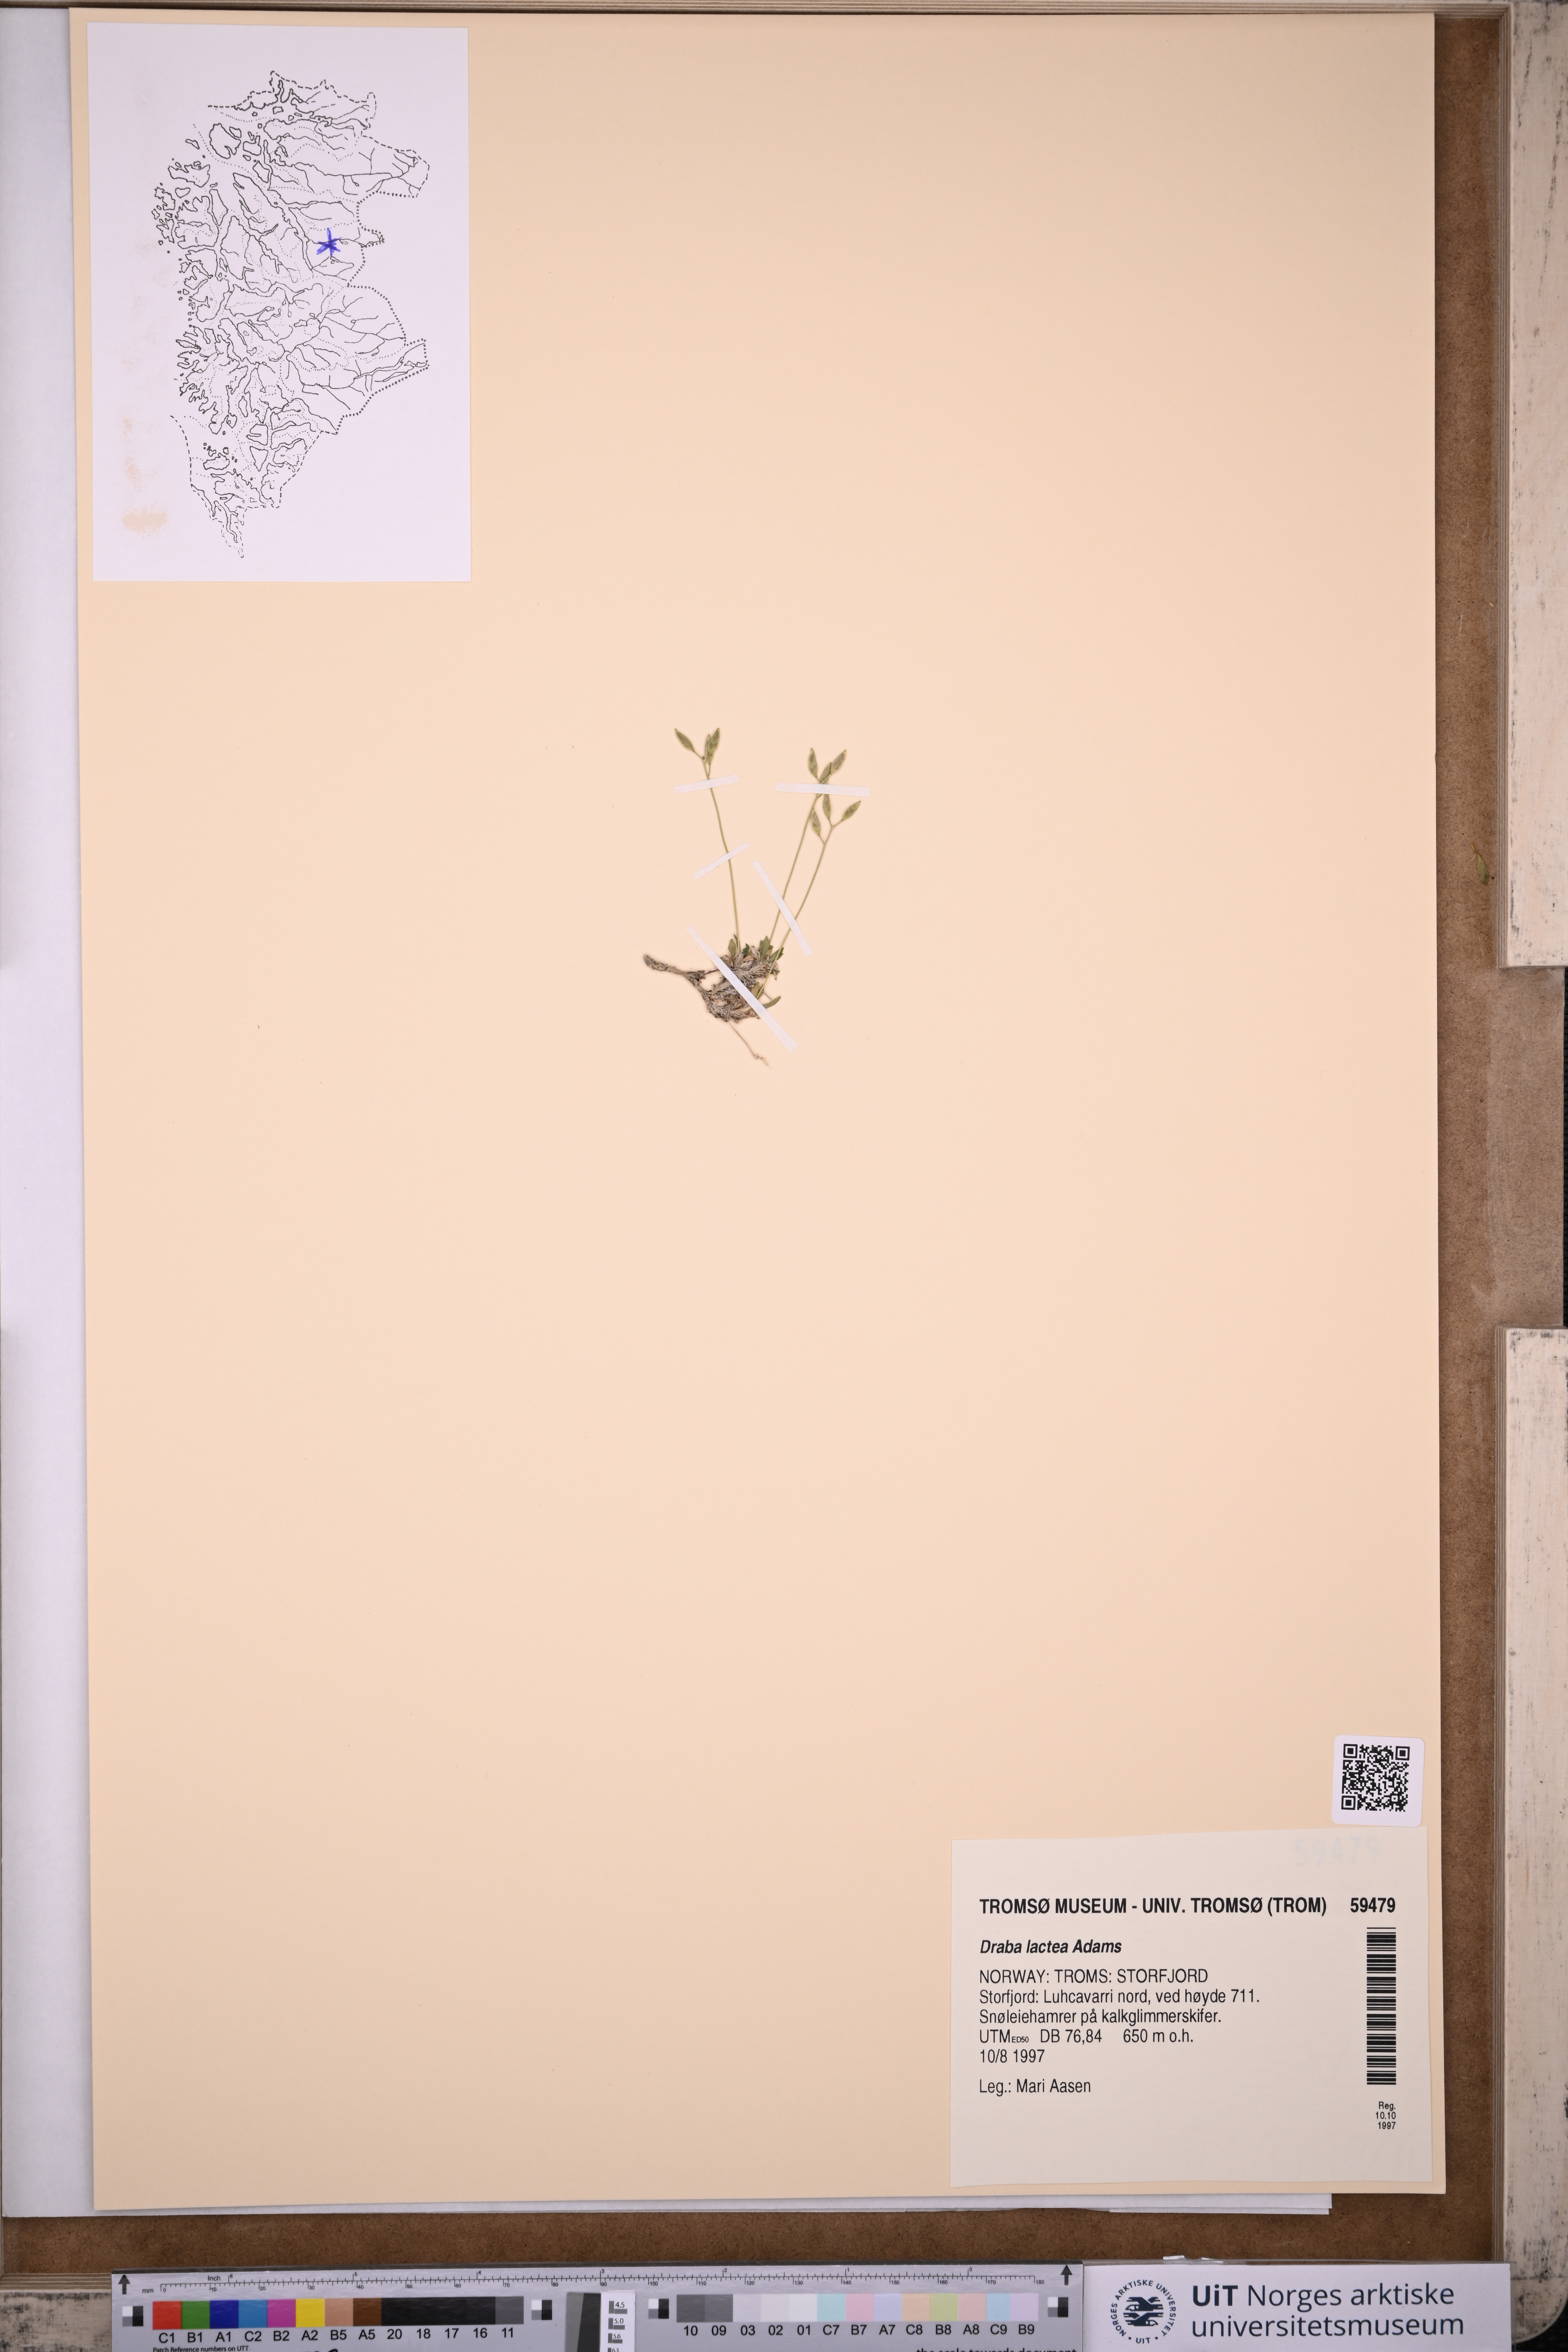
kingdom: Plantae
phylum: Tracheophyta
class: Magnoliopsida
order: Brassicales
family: Brassicaceae
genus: Draba
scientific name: Draba lactea
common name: Milky draba
